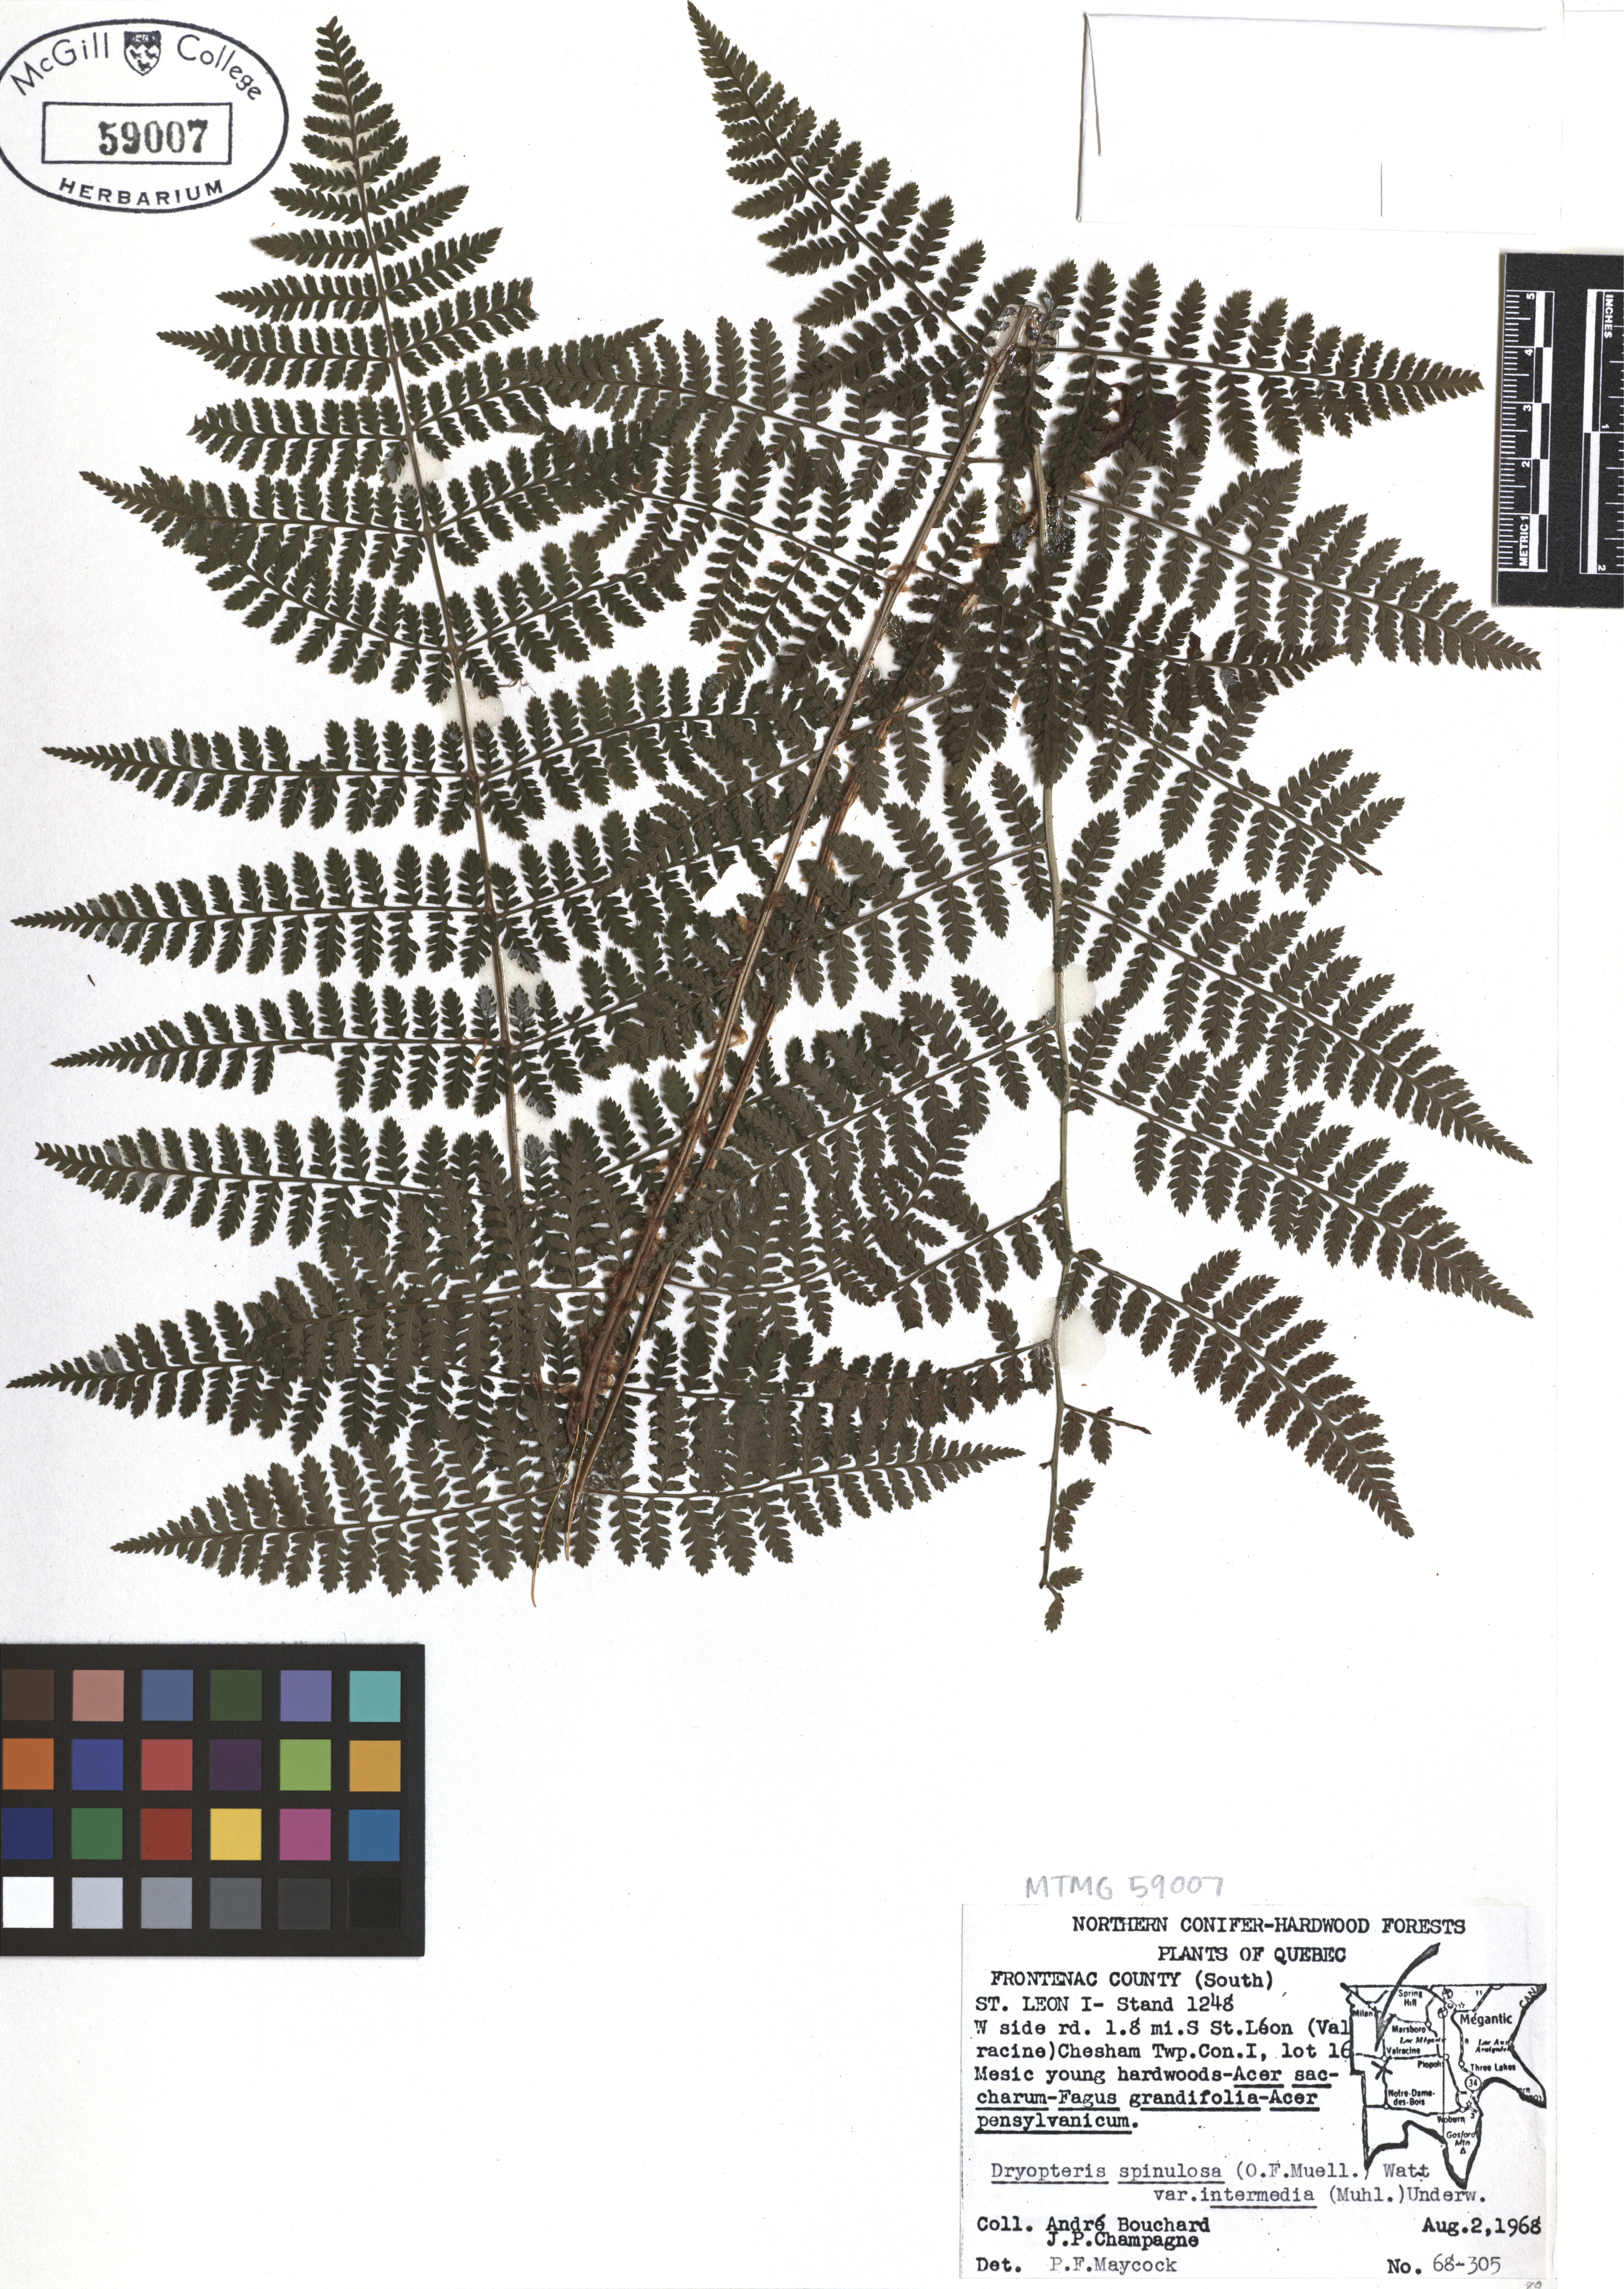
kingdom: Plantae
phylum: Tracheophyta
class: Polypodiopsida
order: Polypodiales
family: Dryopteridaceae
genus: Dryopteris
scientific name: Dryopteris intermedia
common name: Evergreen wood fern
